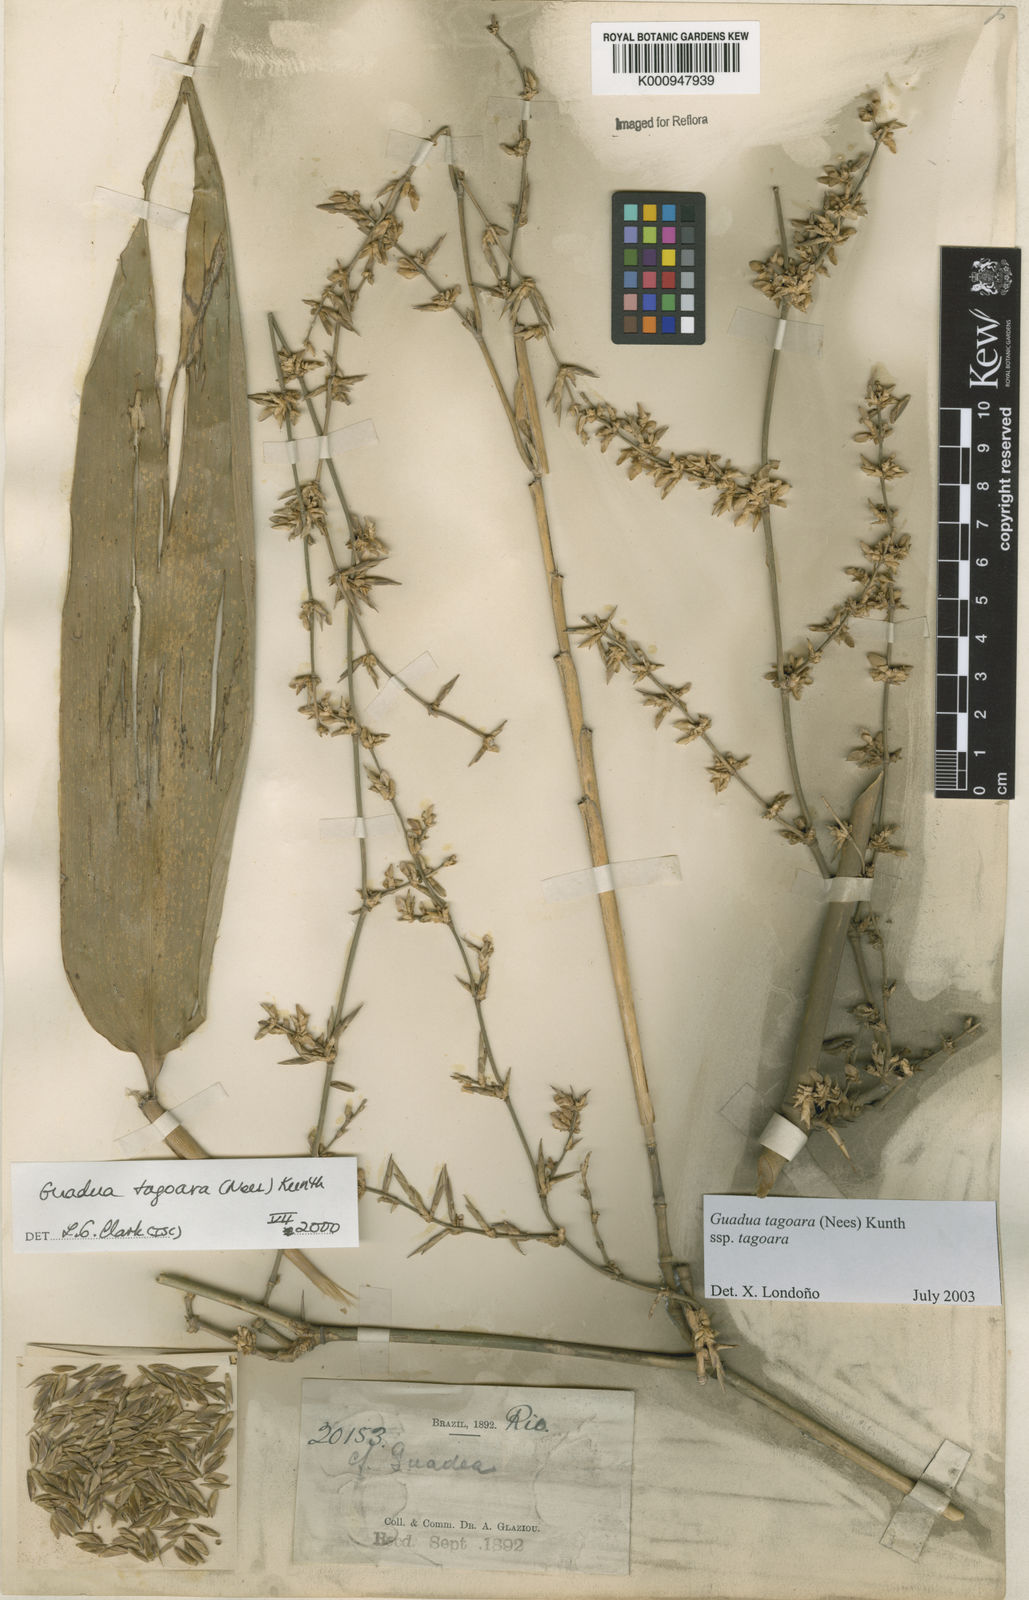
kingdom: Plantae
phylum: Tracheophyta
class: Liliopsida
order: Poales
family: Poaceae
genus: Guadua
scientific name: Guadua tagoara
